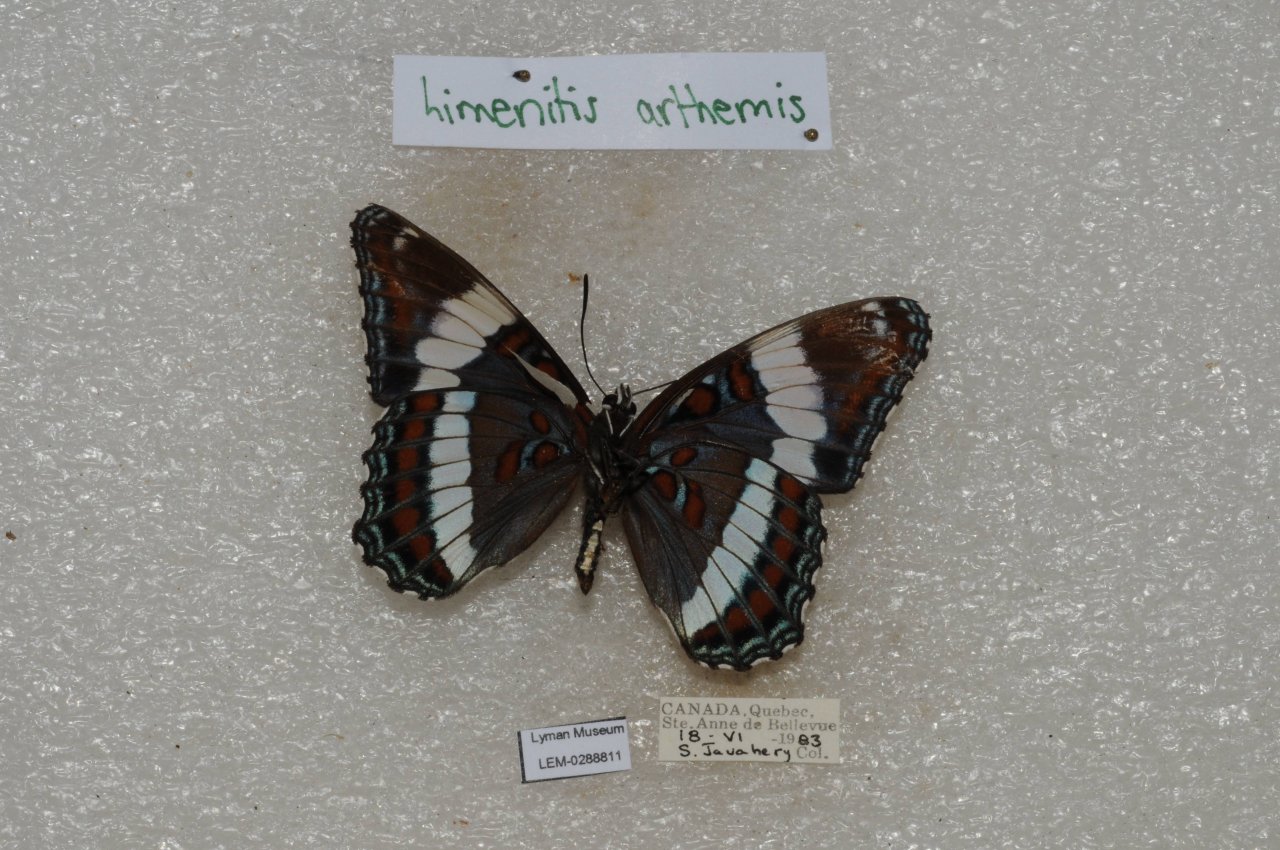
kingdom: Animalia
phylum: Arthropoda
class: Insecta
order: Lepidoptera
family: Nymphalidae
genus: Limenitis
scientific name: Limenitis arthemis
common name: Red-spotted Admiral
